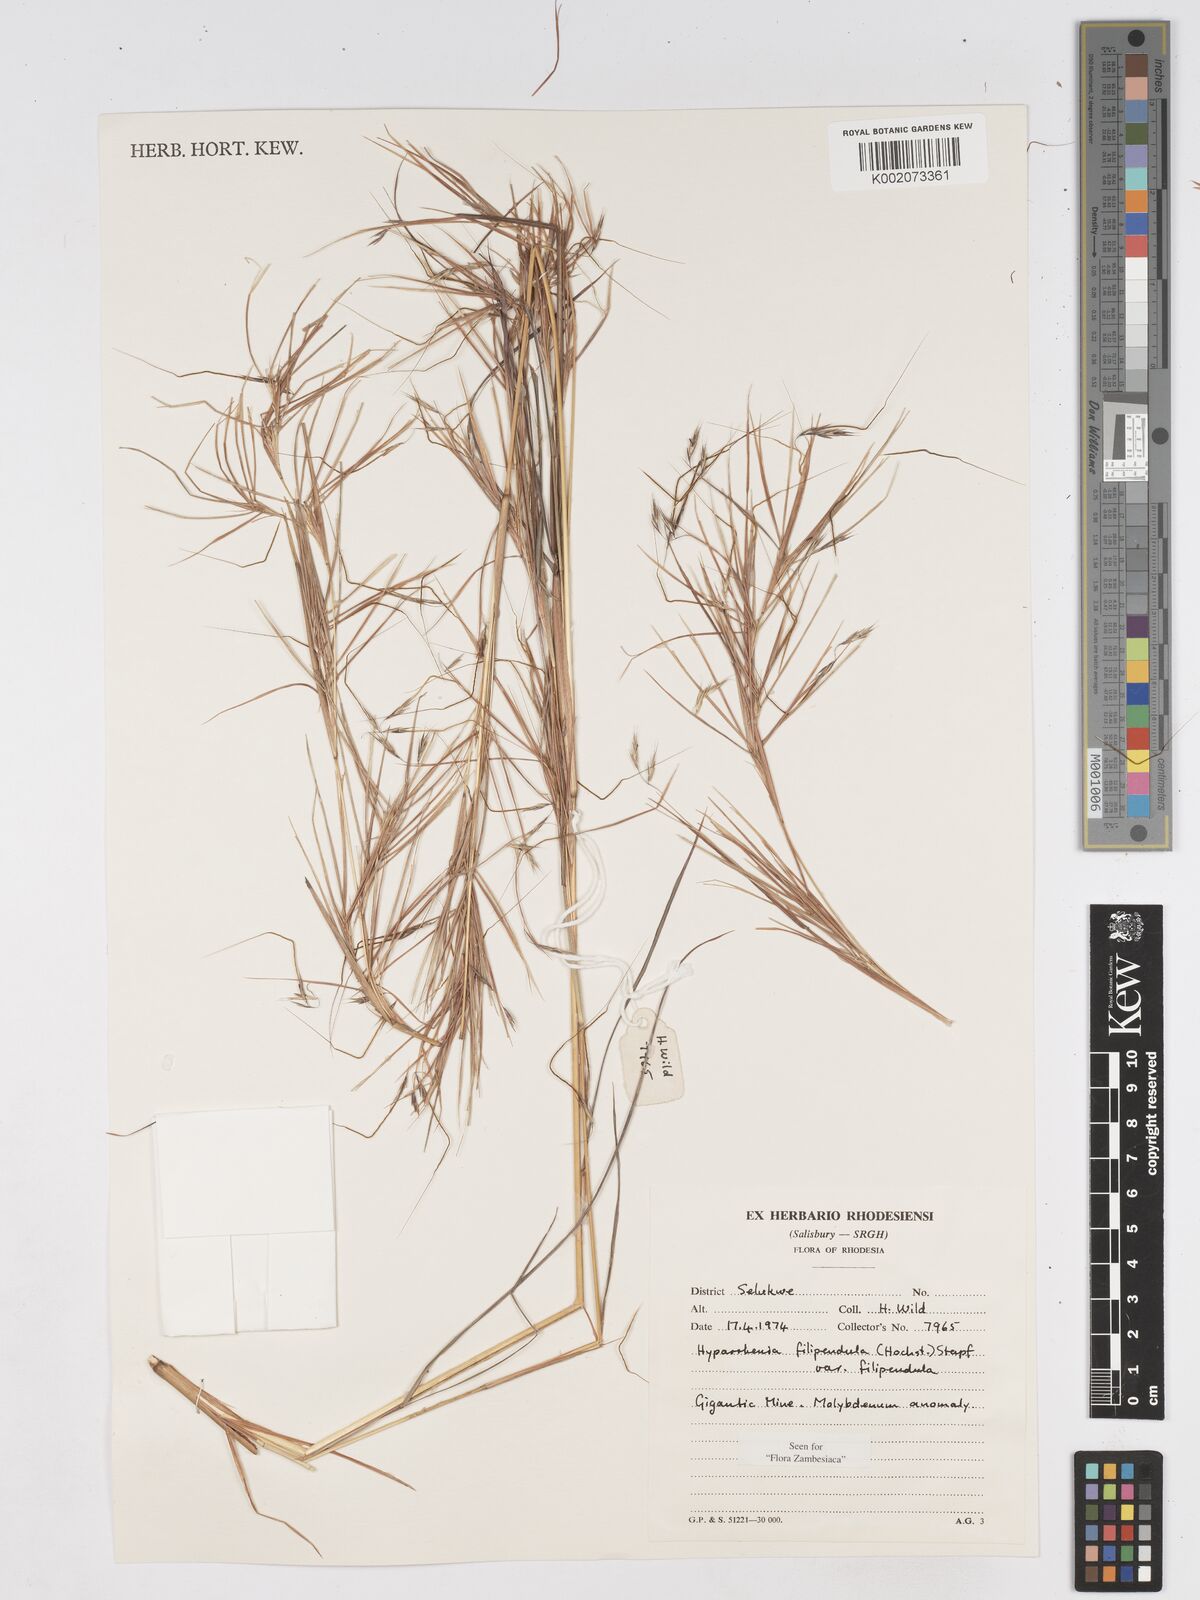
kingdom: Plantae
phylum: Tracheophyta
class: Liliopsida
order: Poales
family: Poaceae
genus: Hyparrhenia
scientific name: Hyparrhenia filipendula
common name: Tambookie grass
